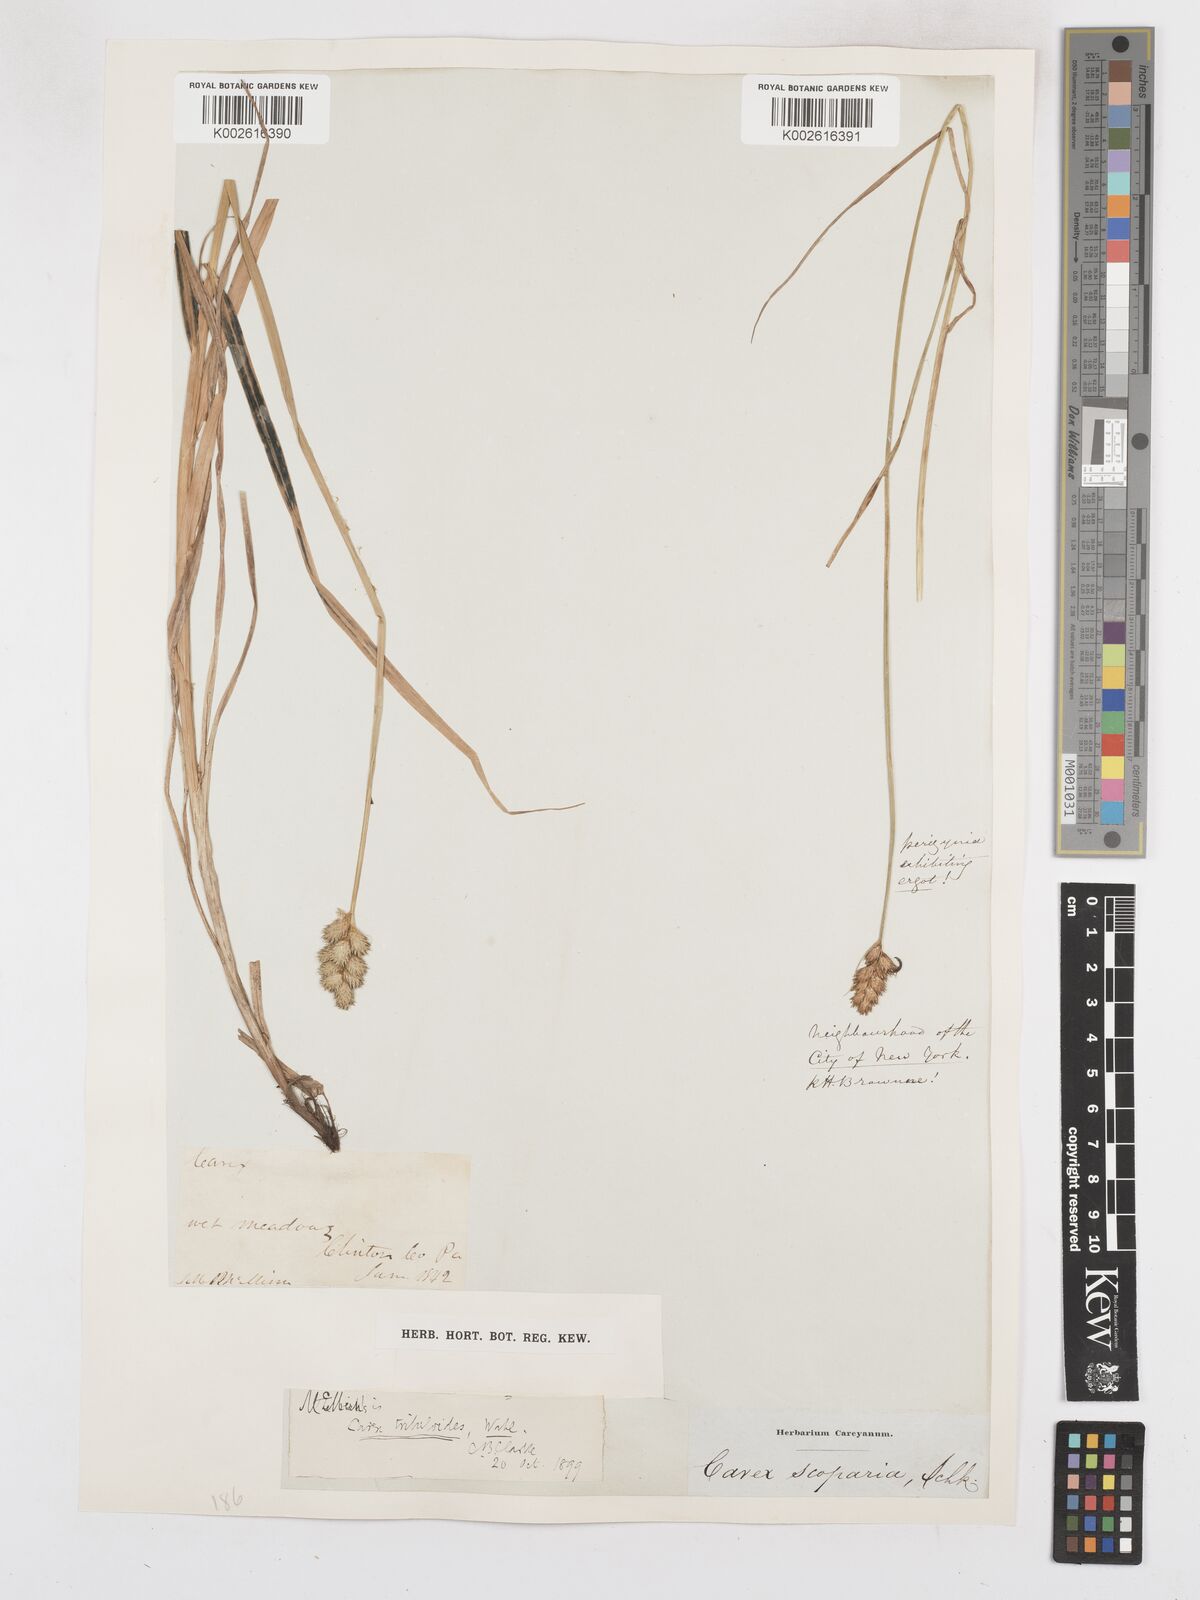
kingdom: Plantae
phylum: Tracheophyta
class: Liliopsida
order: Poales
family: Cyperaceae
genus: Carex
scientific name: Carex tribuloides
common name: Blunt broom sedge
